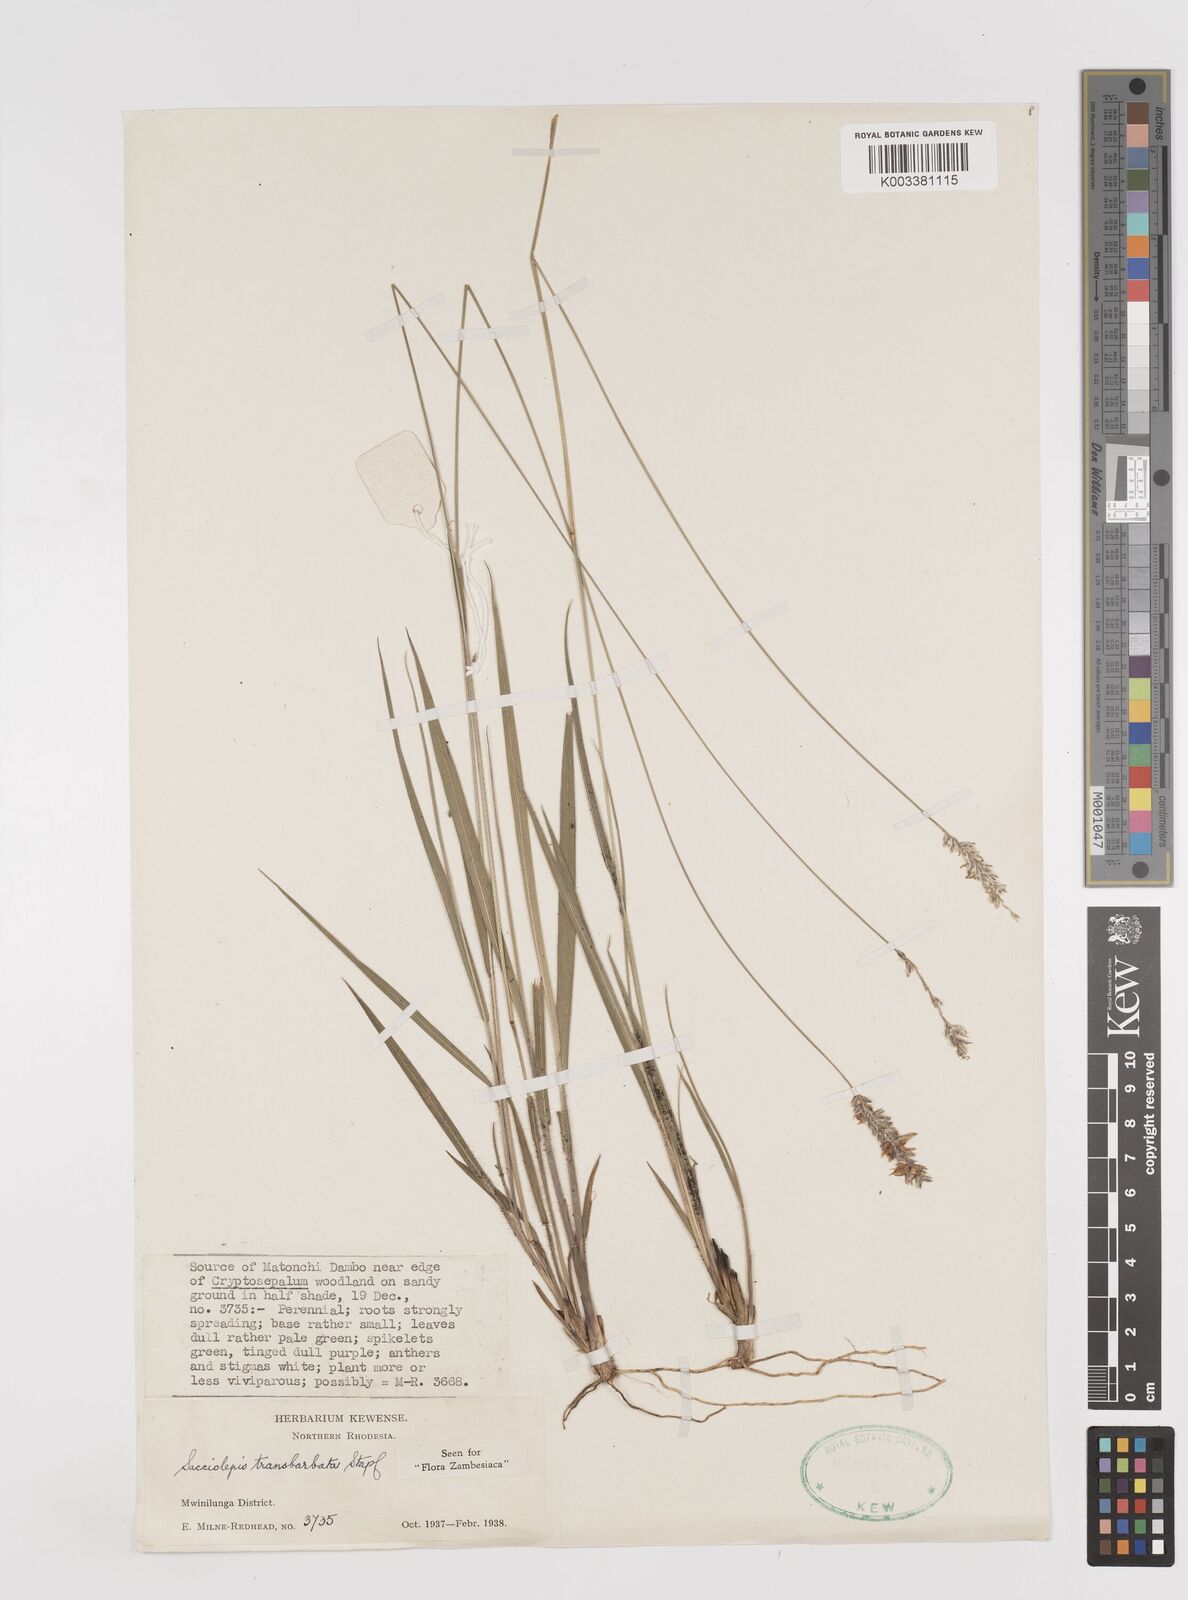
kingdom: Plantae
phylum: Tracheophyta
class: Liliopsida
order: Poales
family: Poaceae
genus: Sacciolepis
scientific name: Sacciolepis transbarbata
